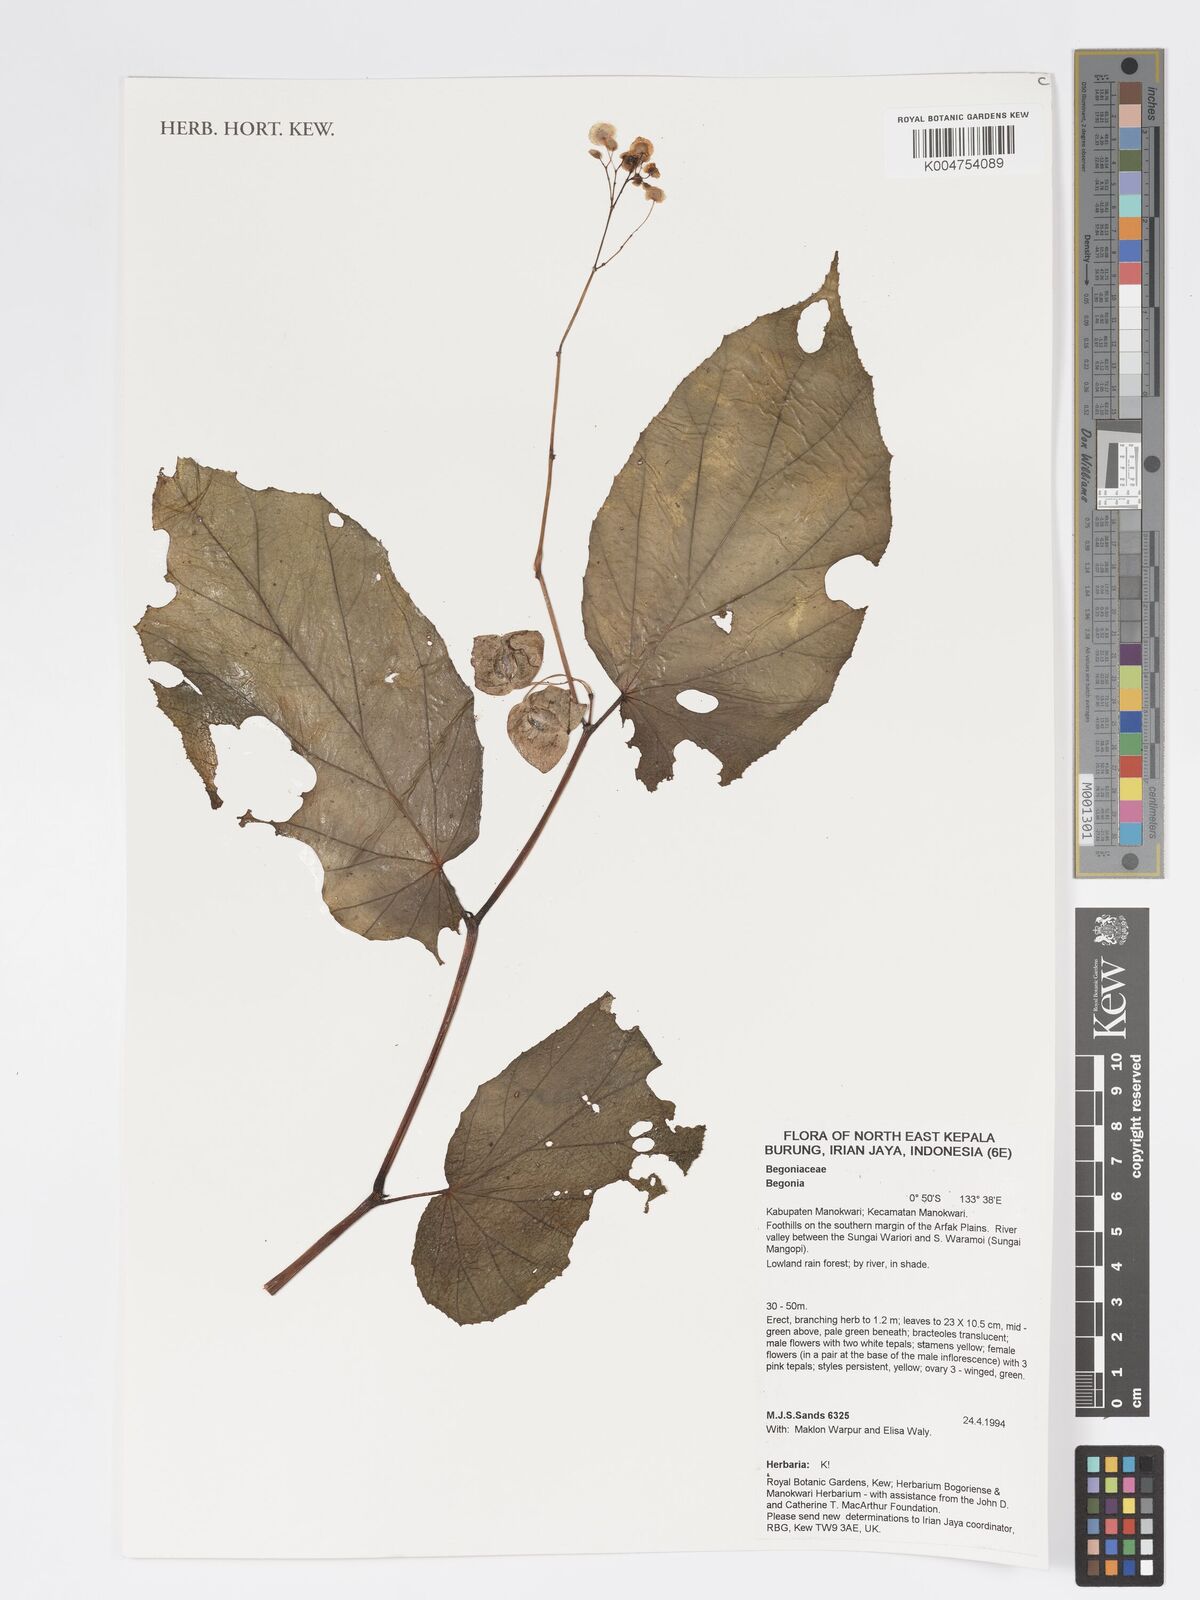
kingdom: Plantae
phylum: Tracheophyta
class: Magnoliopsida
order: Cucurbitales
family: Begoniaceae
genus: Begonia
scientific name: Begonia
